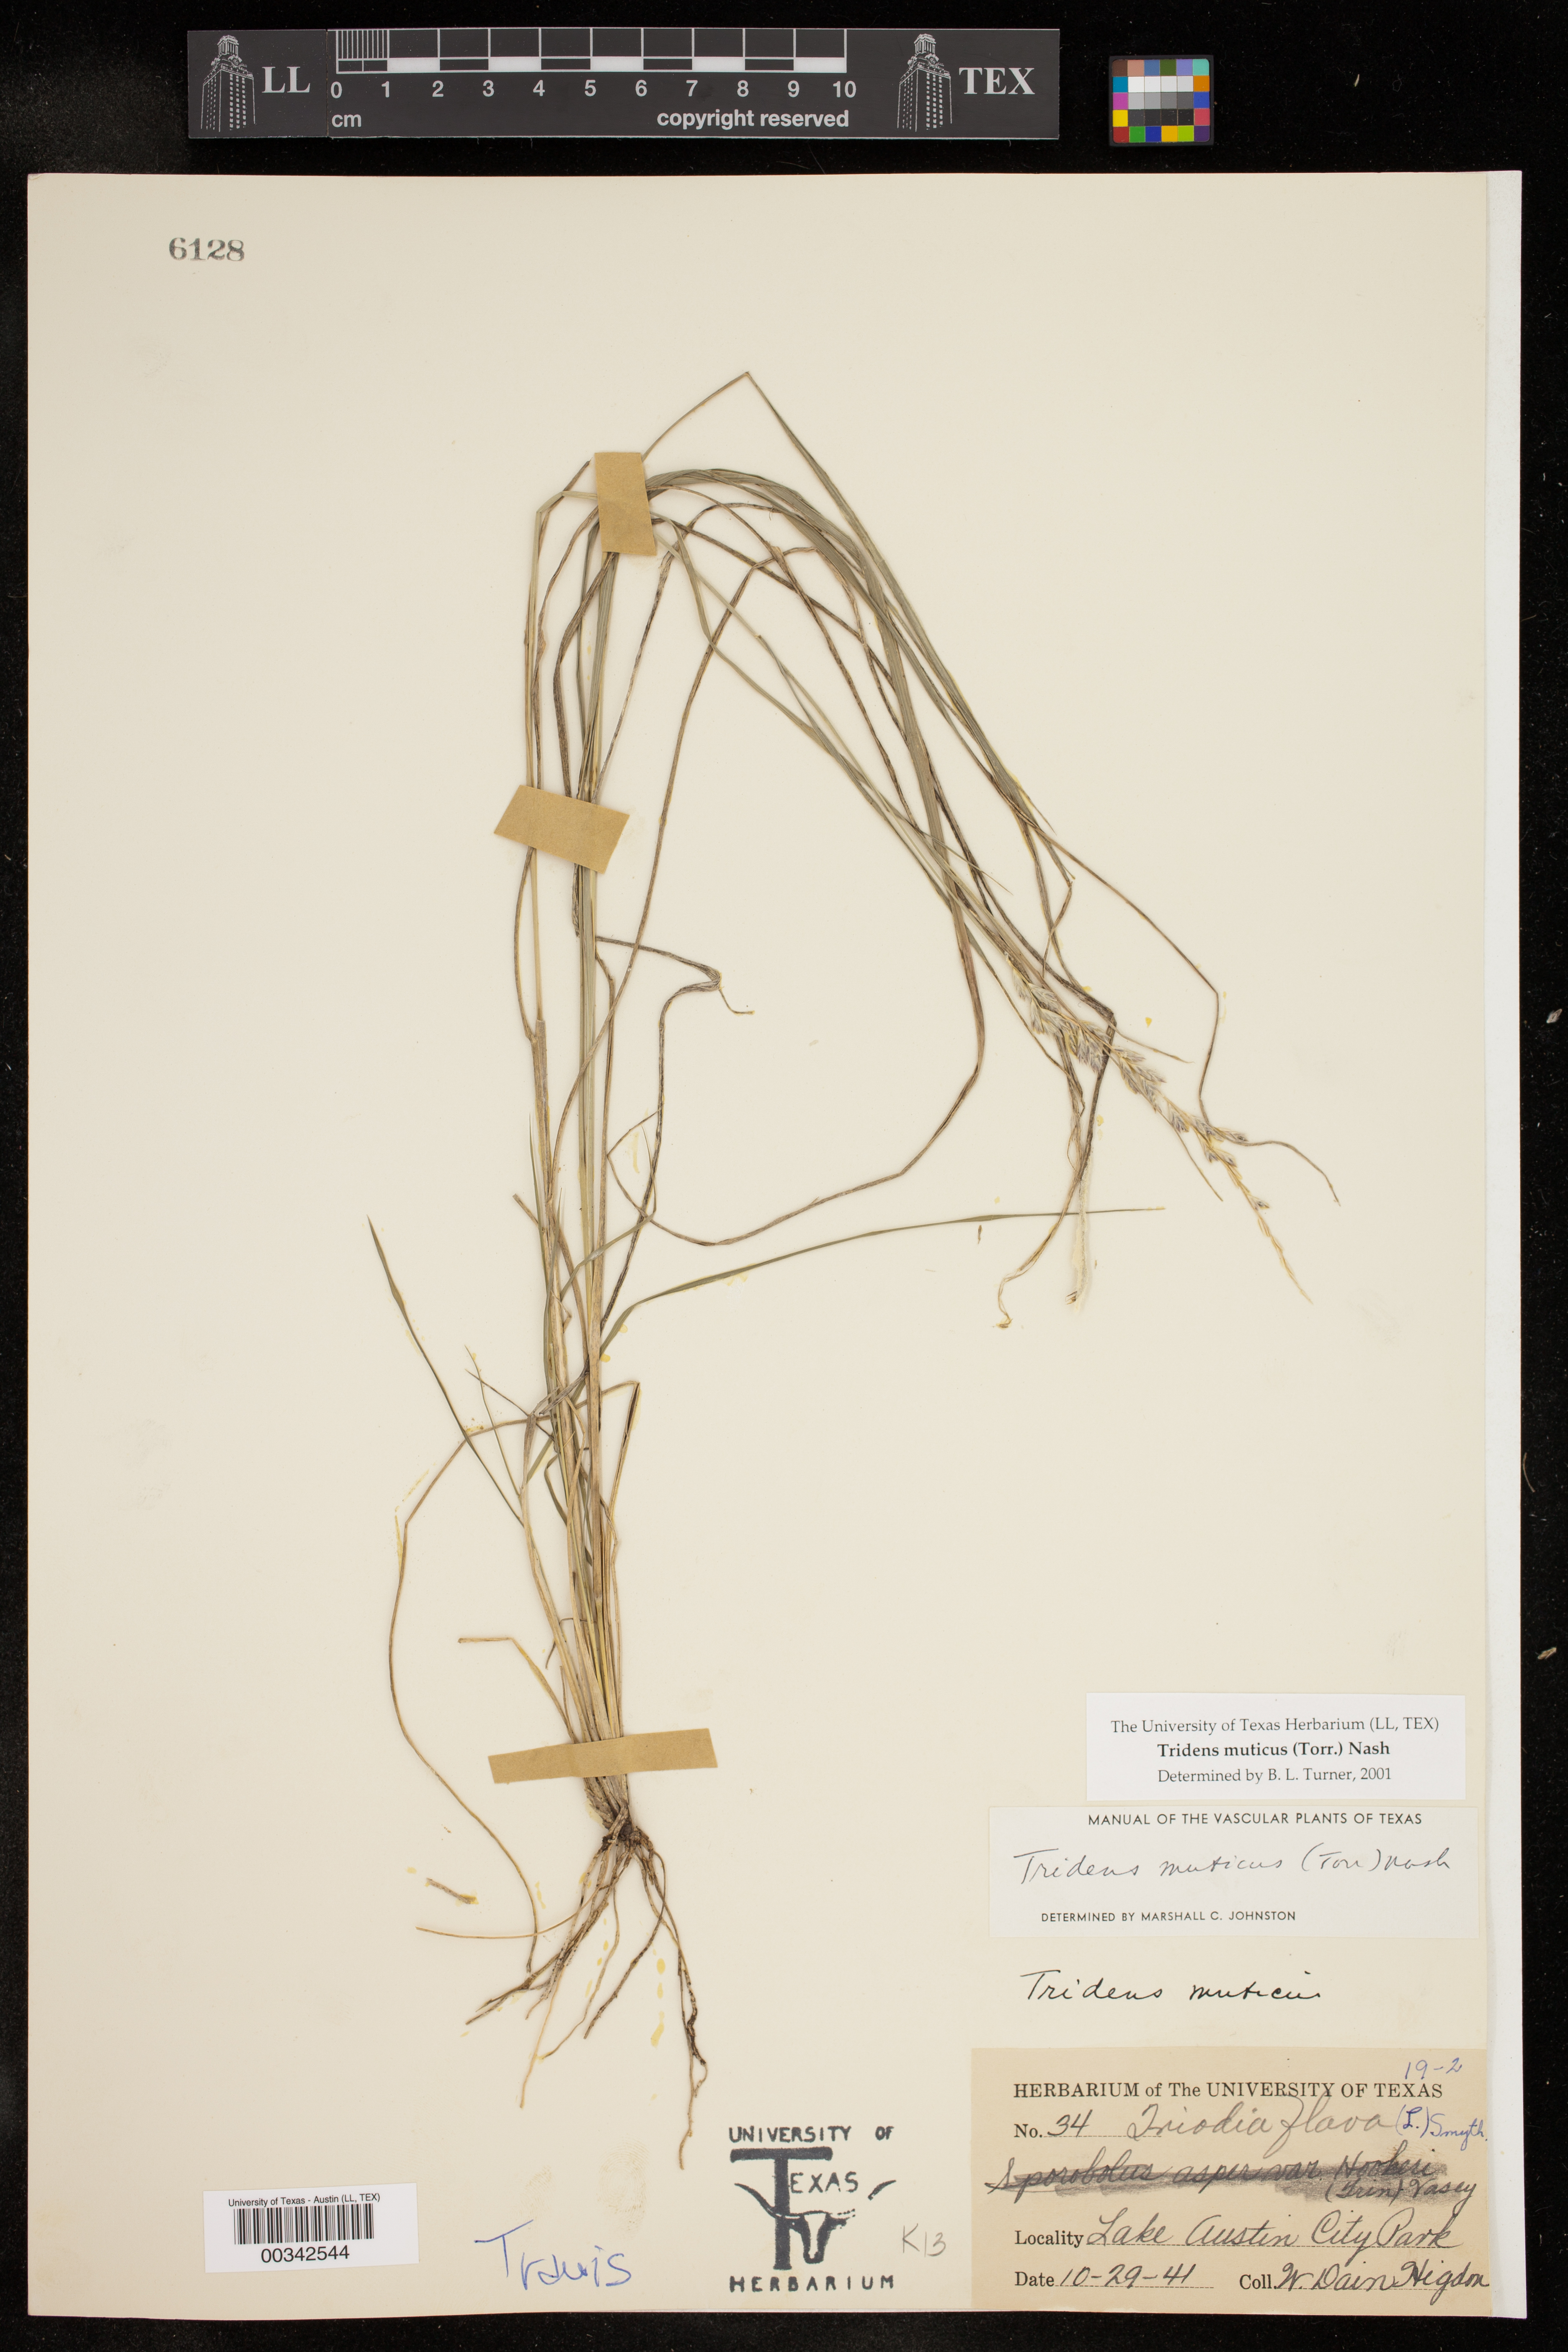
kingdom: Plantae
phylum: Tracheophyta
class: Liliopsida
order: Poales
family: Poaceae
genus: Tridentopsis
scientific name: Tridentopsis mutica
